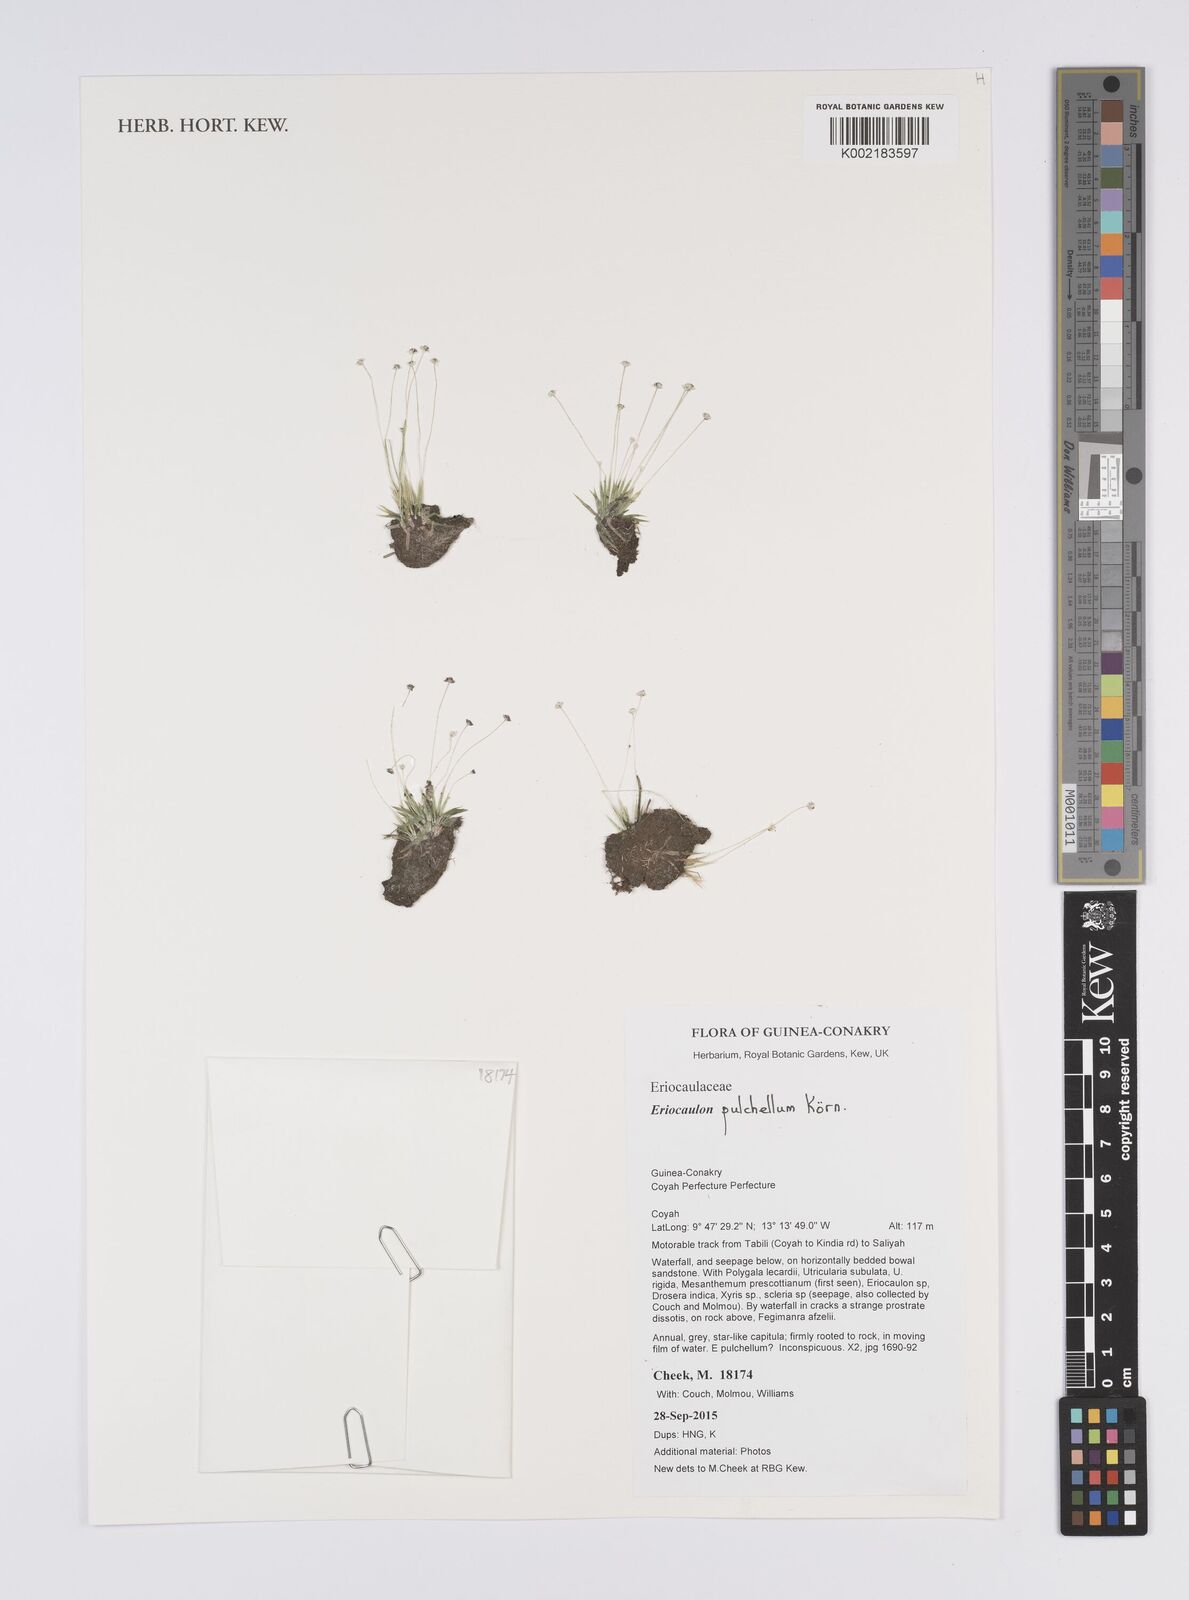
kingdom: Plantae
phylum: Tracheophyta
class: Liliopsida
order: Poales
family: Eriocaulaceae
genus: Eriocaulon
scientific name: Eriocaulon pulchellum
